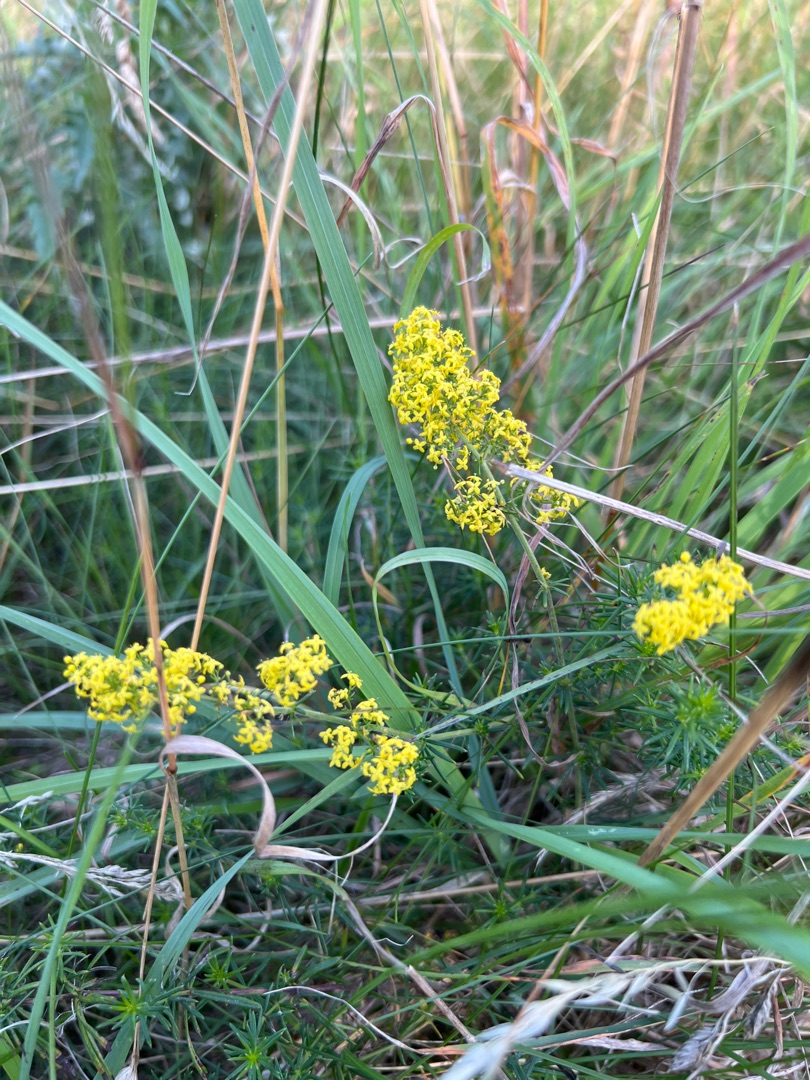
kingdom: Plantae
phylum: Tracheophyta
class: Magnoliopsida
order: Gentianales
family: Rubiaceae
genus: Galium
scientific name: Galium verum
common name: Gul snerre
